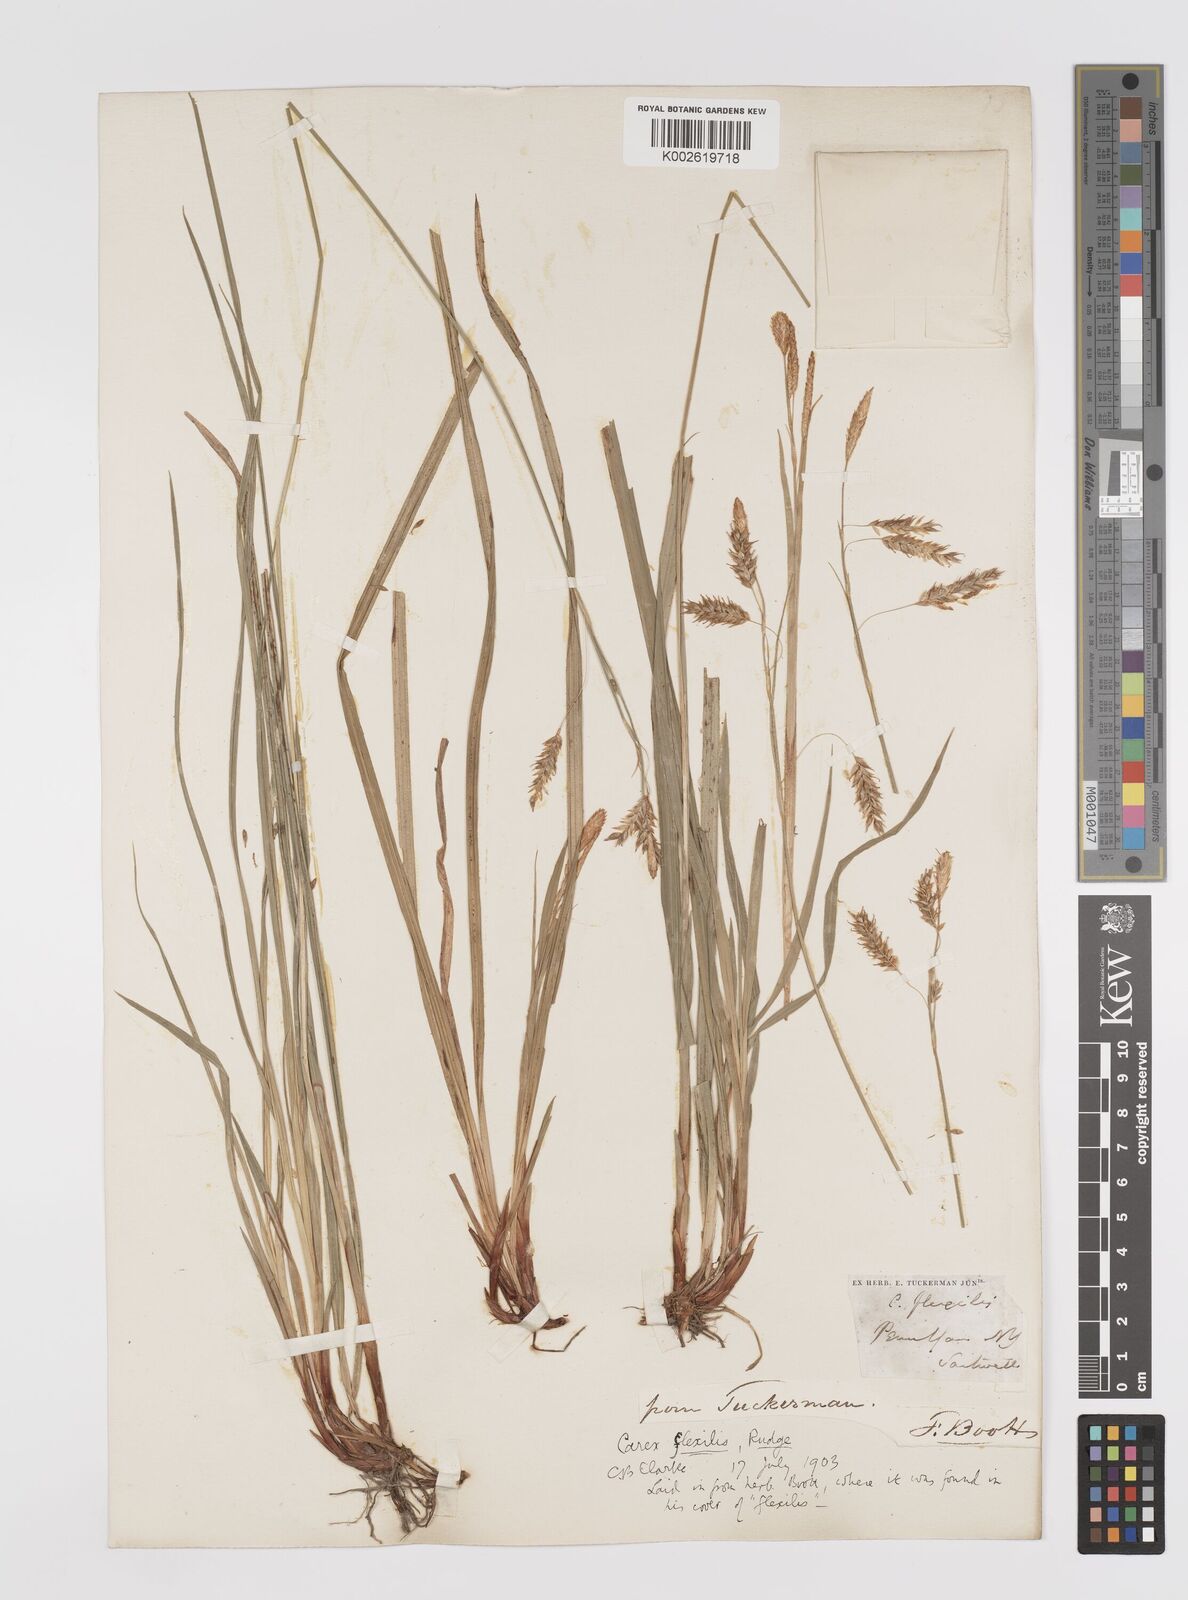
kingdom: Plantae
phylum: Tracheophyta
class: Liliopsida
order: Poales
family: Cyperaceae
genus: Carex
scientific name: Carex castanea
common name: Chestnut sedge
